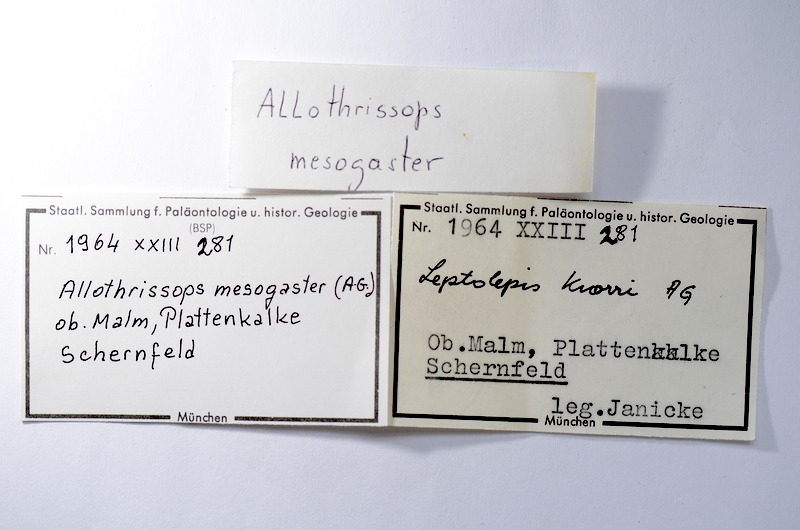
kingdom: Animalia
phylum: Chordata
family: Allothrissopidae
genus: Allothrissops
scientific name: Allothrissops mesogaster
